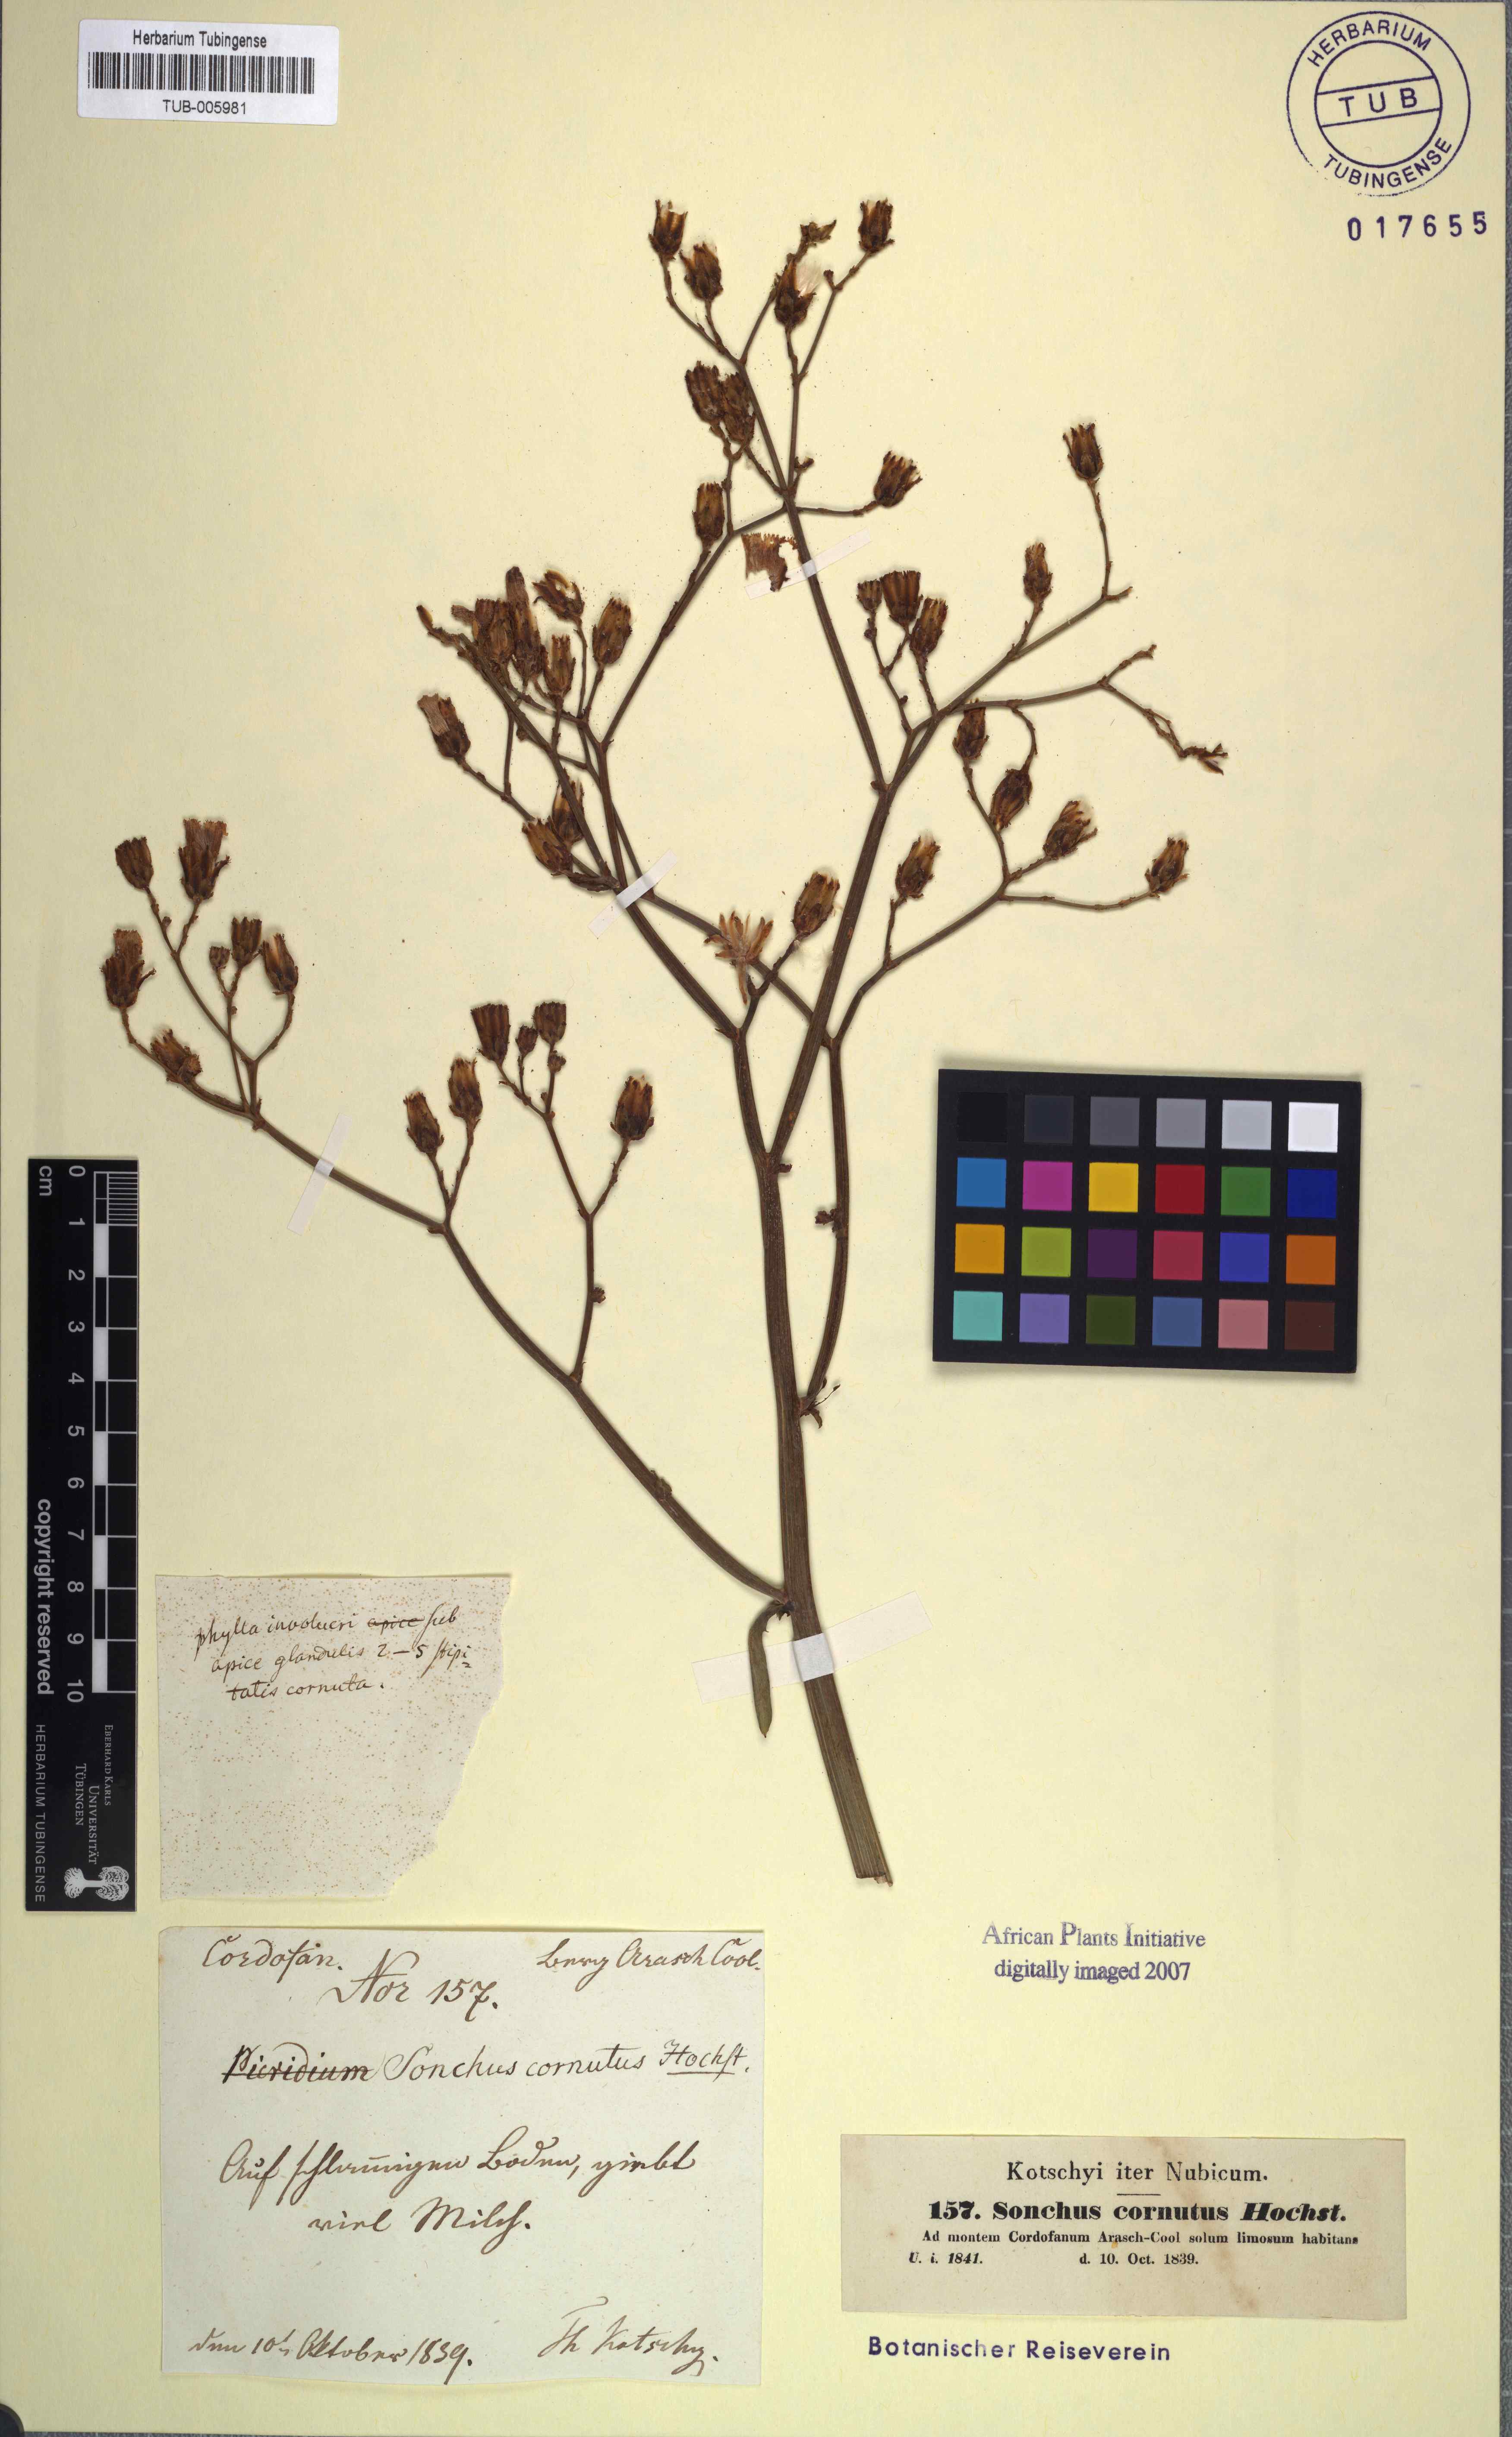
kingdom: Plantae
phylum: Tracheophyta
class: Magnoliopsida
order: Asterales
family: Asteraceae
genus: Launaea
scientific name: Launaea cornuta
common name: Bitter-lettuce
